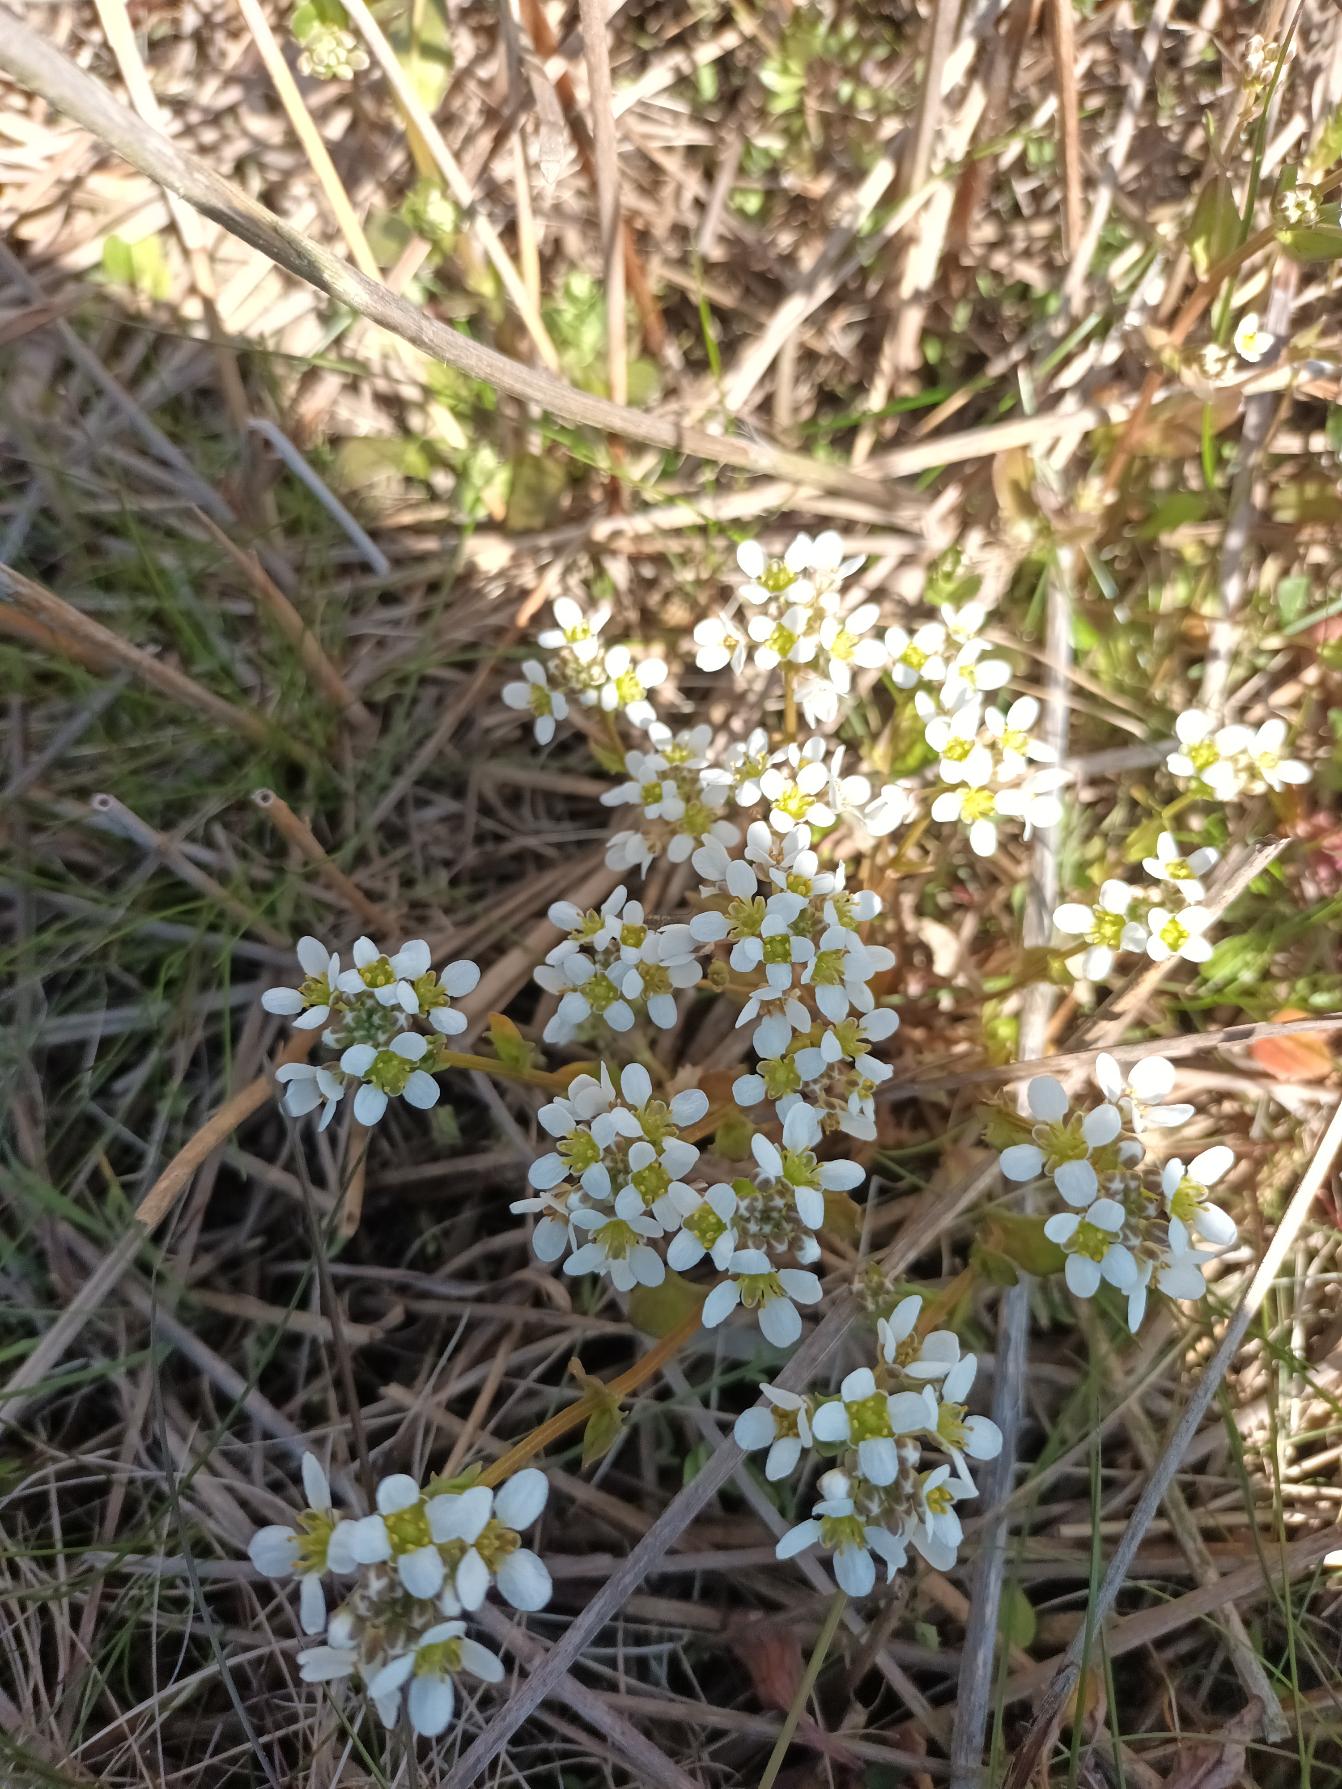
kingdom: Plantae
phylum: Tracheophyta
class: Magnoliopsida
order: Brassicales
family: Brassicaceae
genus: Cochlearia
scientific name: Cochlearia anglica
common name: Engelsk kokleare
